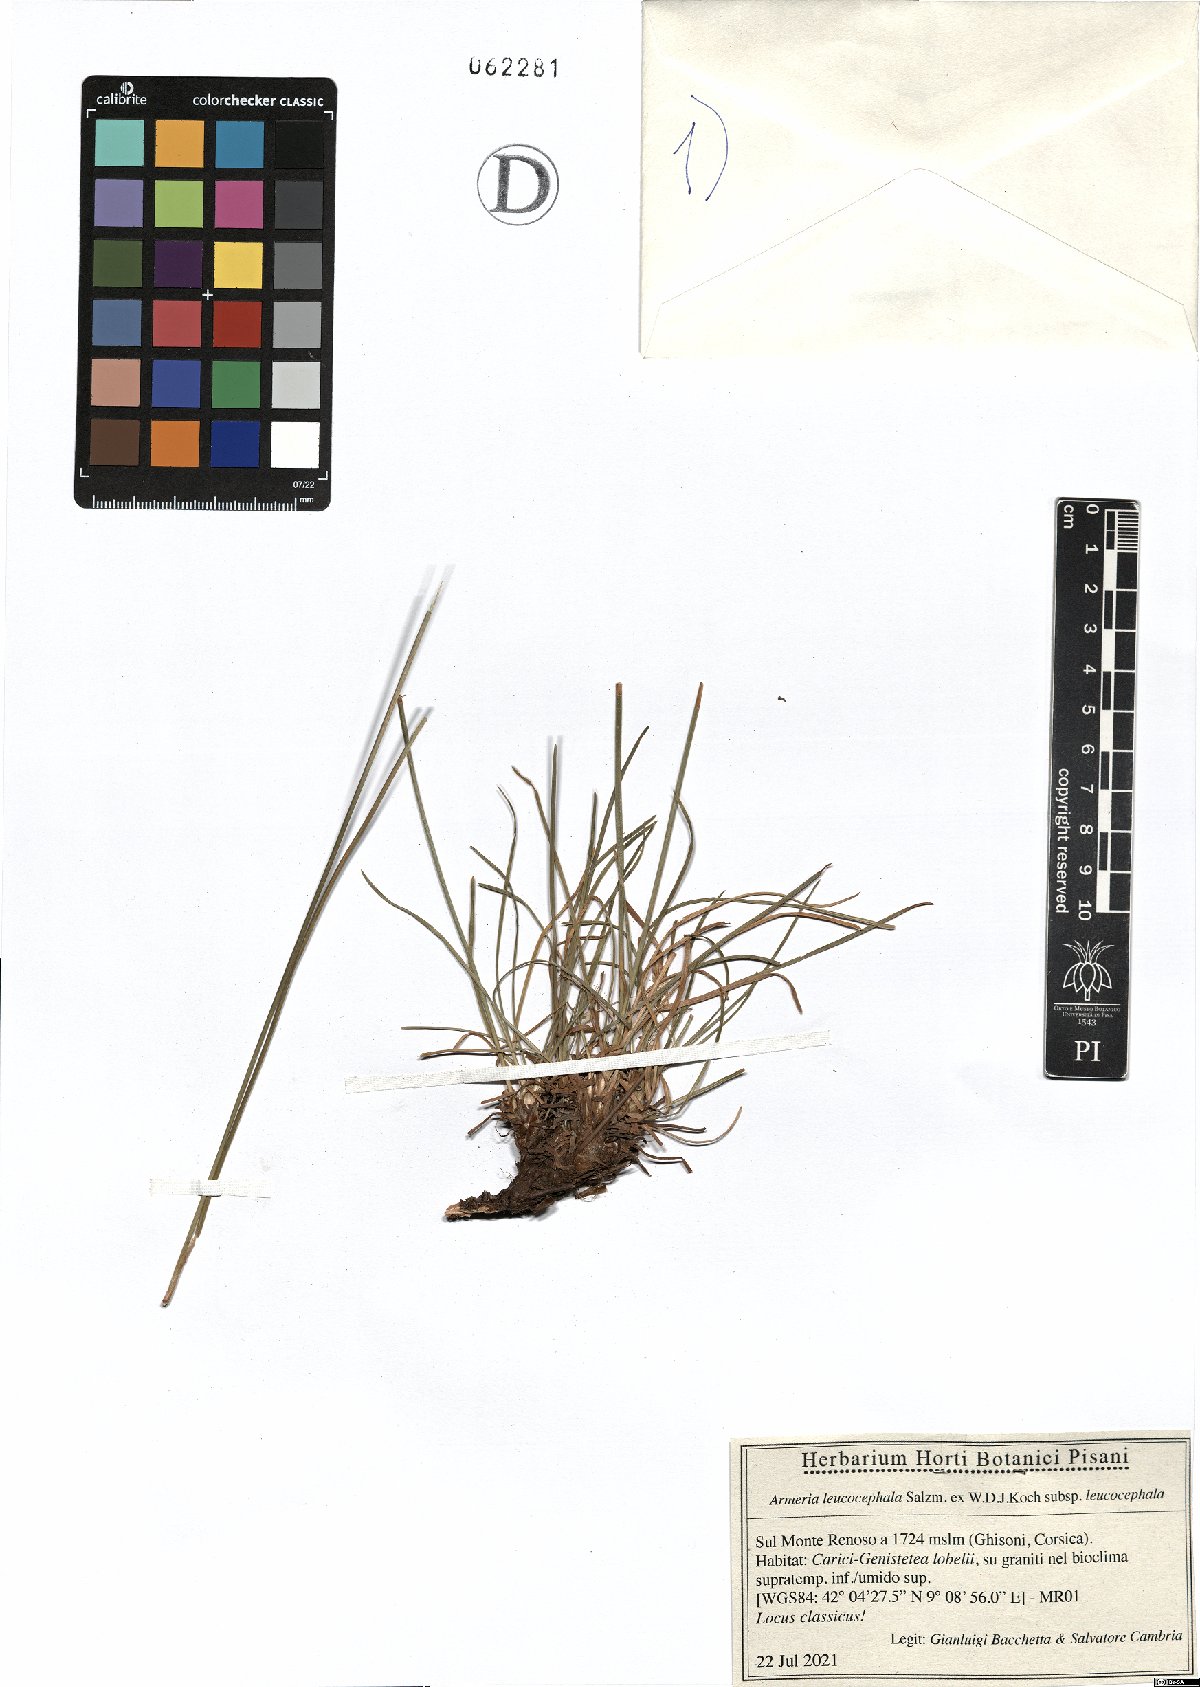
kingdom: Plantae
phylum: Tracheophyta
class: Magnoliopsida
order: Caryophyllales
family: Plumbaginaceae
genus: Armeria
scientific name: Armeria leucocephala
